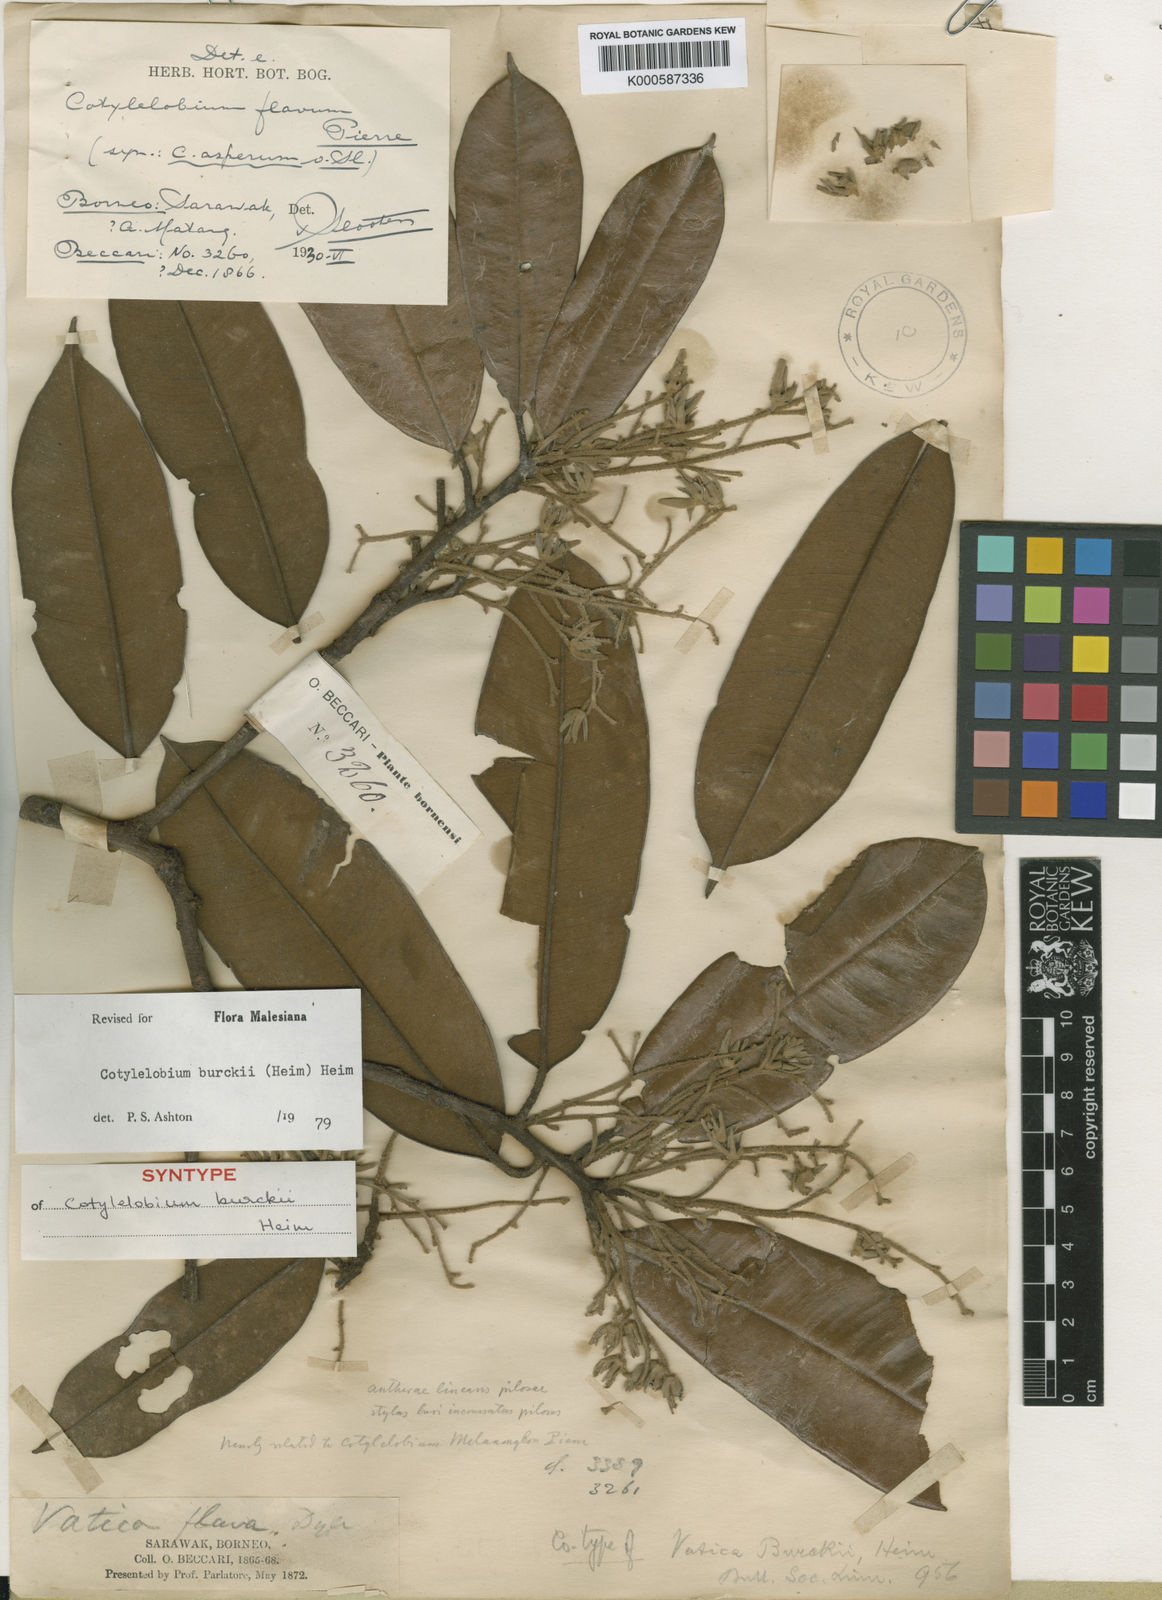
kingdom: Plantae
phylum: Tracheophyta
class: Magnoliopsida
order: Malvales
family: Dipterocarpaceae
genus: Cotylelobium
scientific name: Cotylelobium burckii
